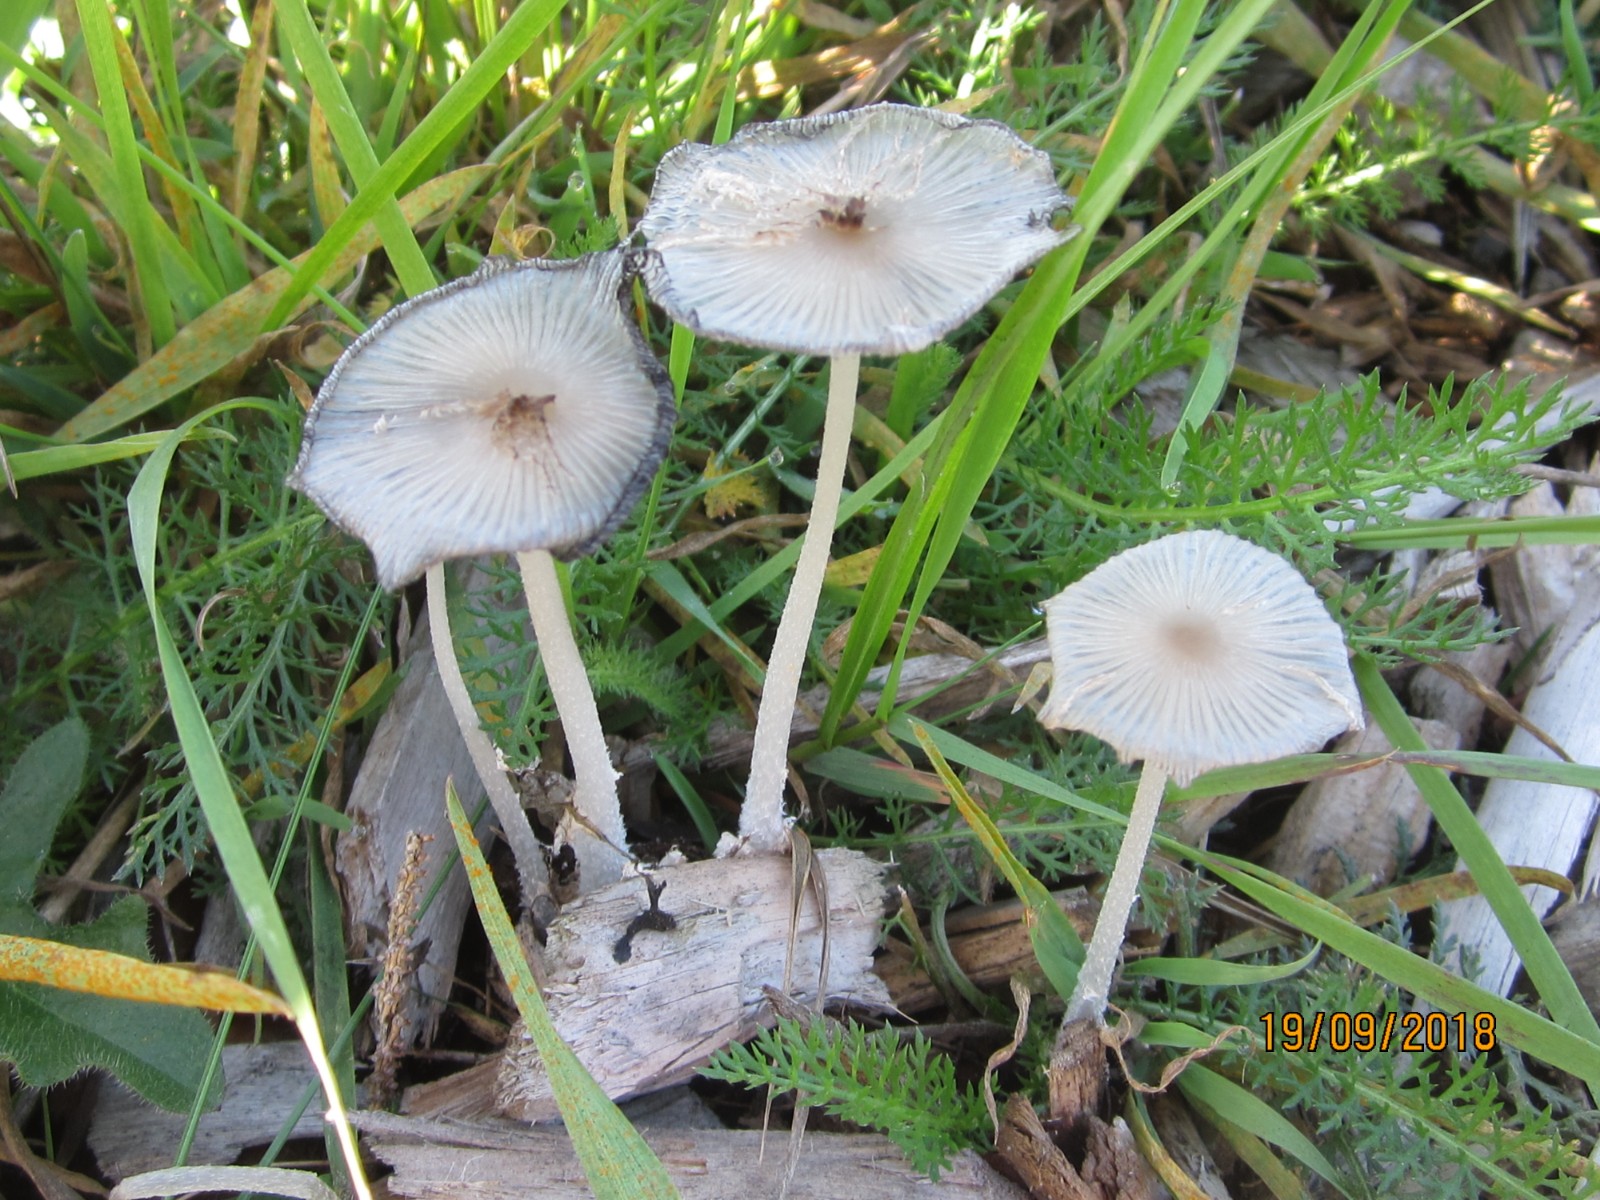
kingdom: Fungi
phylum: Basidiomycota
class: Agaricomycetes
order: Agaricales
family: Psathyrellaceae
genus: Coprinopsis
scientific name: Coprinopsis lagopus
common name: dunstokket blækhat
